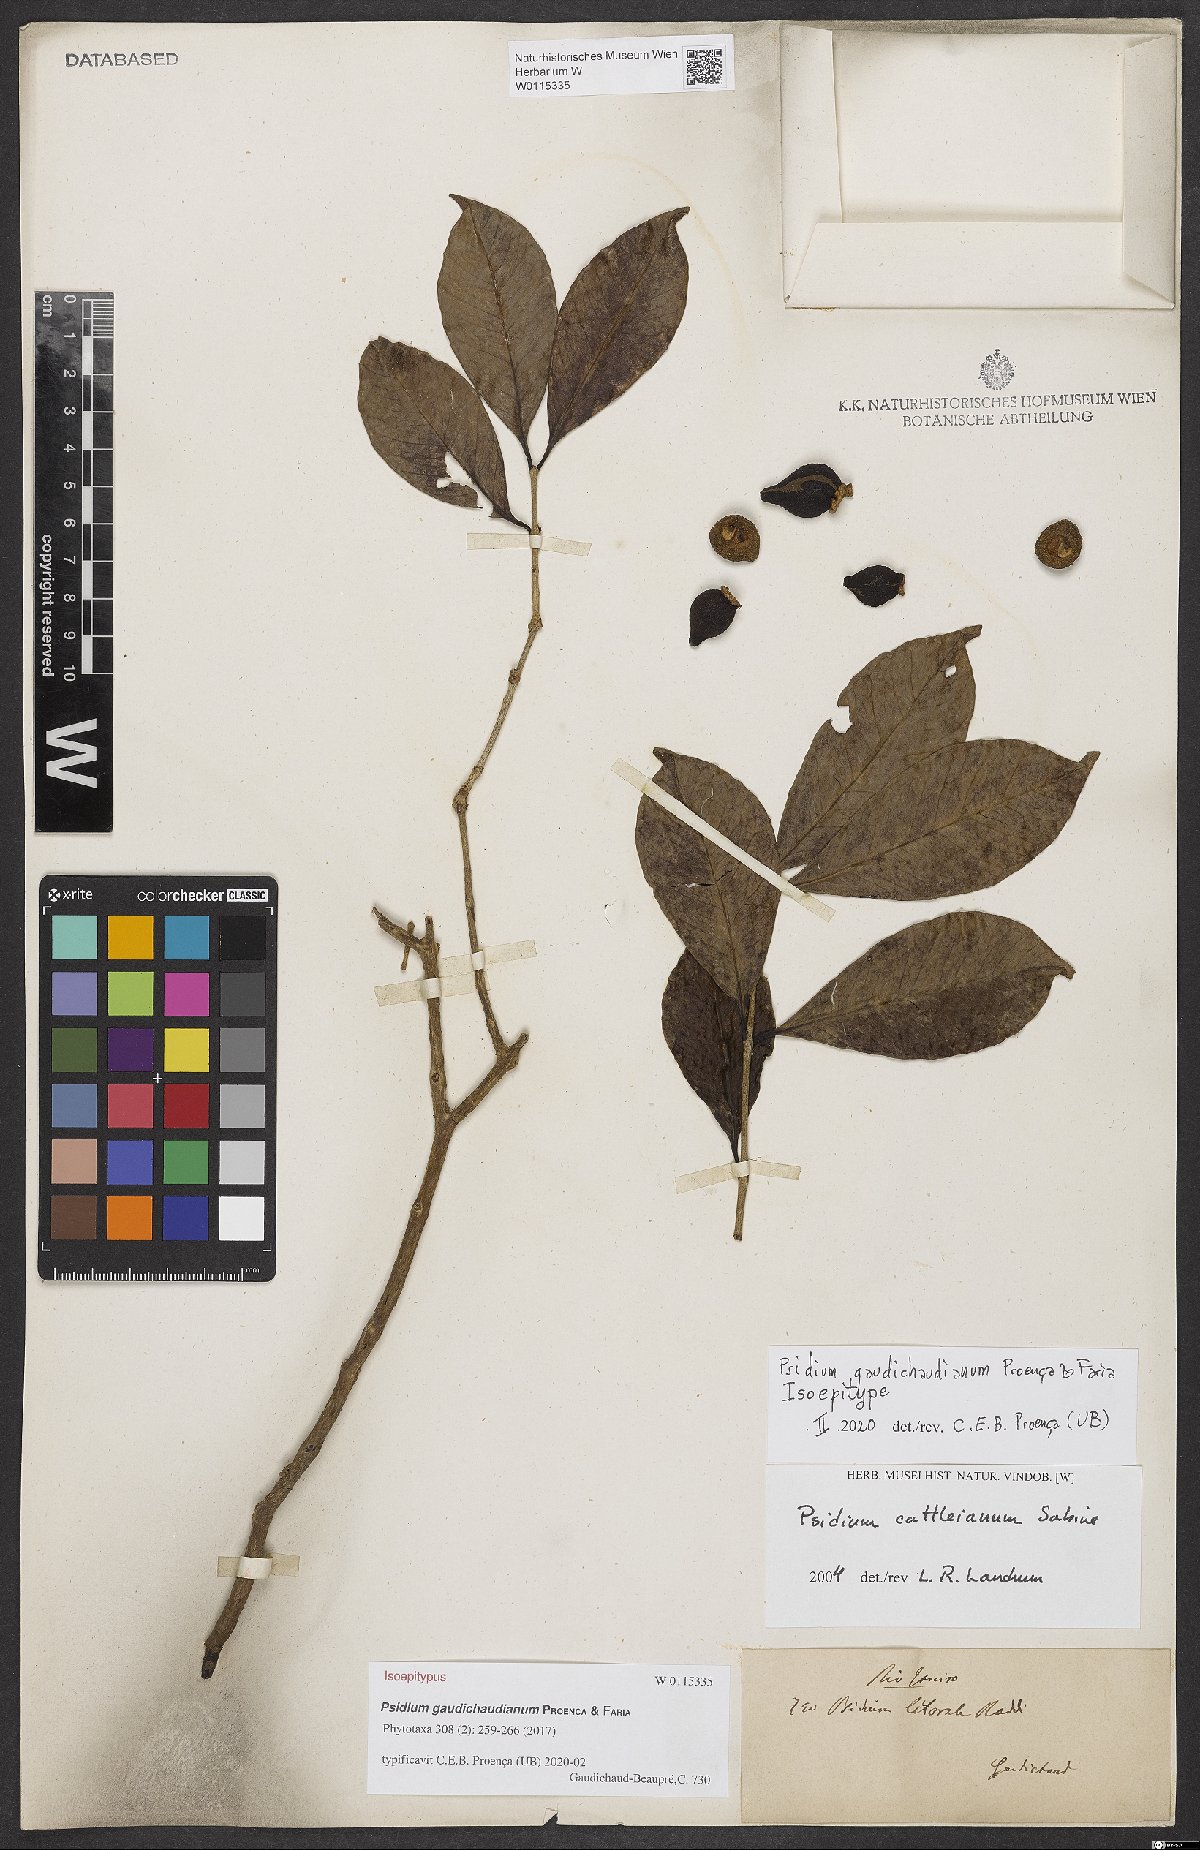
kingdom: Plantae
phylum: Tracheophyta
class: Magnoliopsida
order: Myrtales
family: Myrtaceae
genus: Psidium
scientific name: Psidium gaudichaudianum
